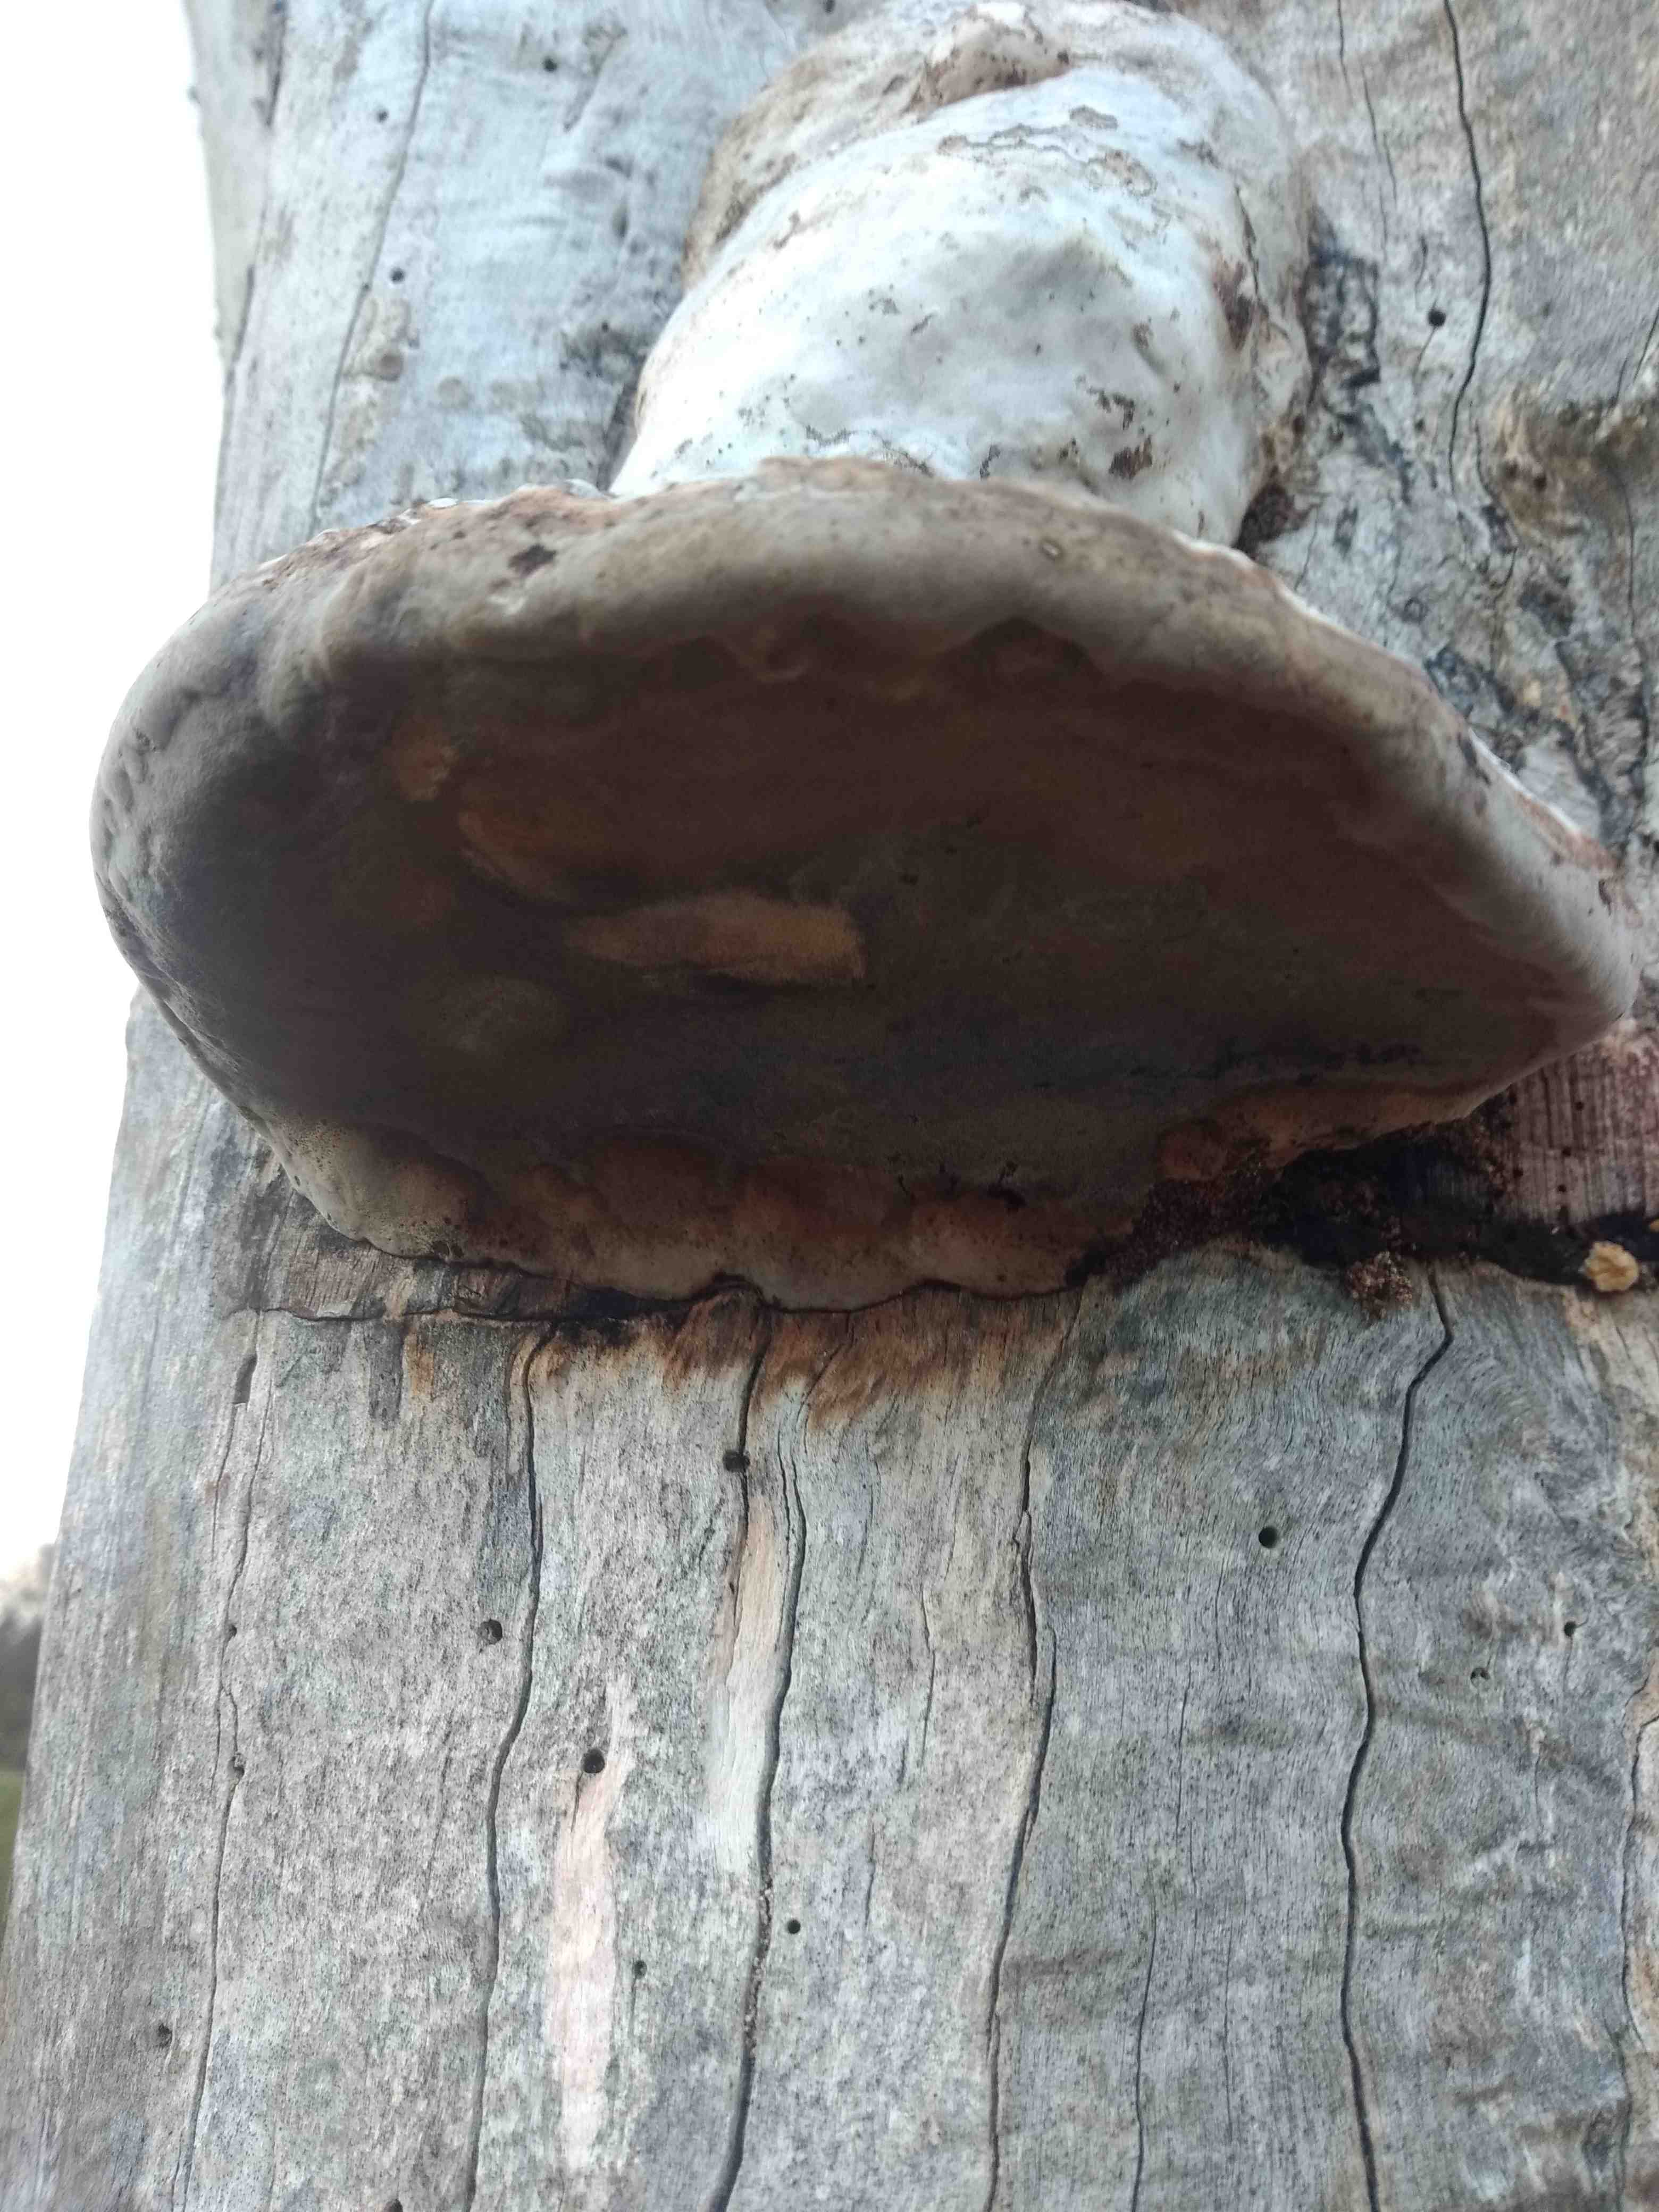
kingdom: Fungi
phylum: Basidiomycota
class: Agaricomycetes
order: Polyporales
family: Polyporaceae
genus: Fomes
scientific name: Fomes fomentarius
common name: tøndersvamp
